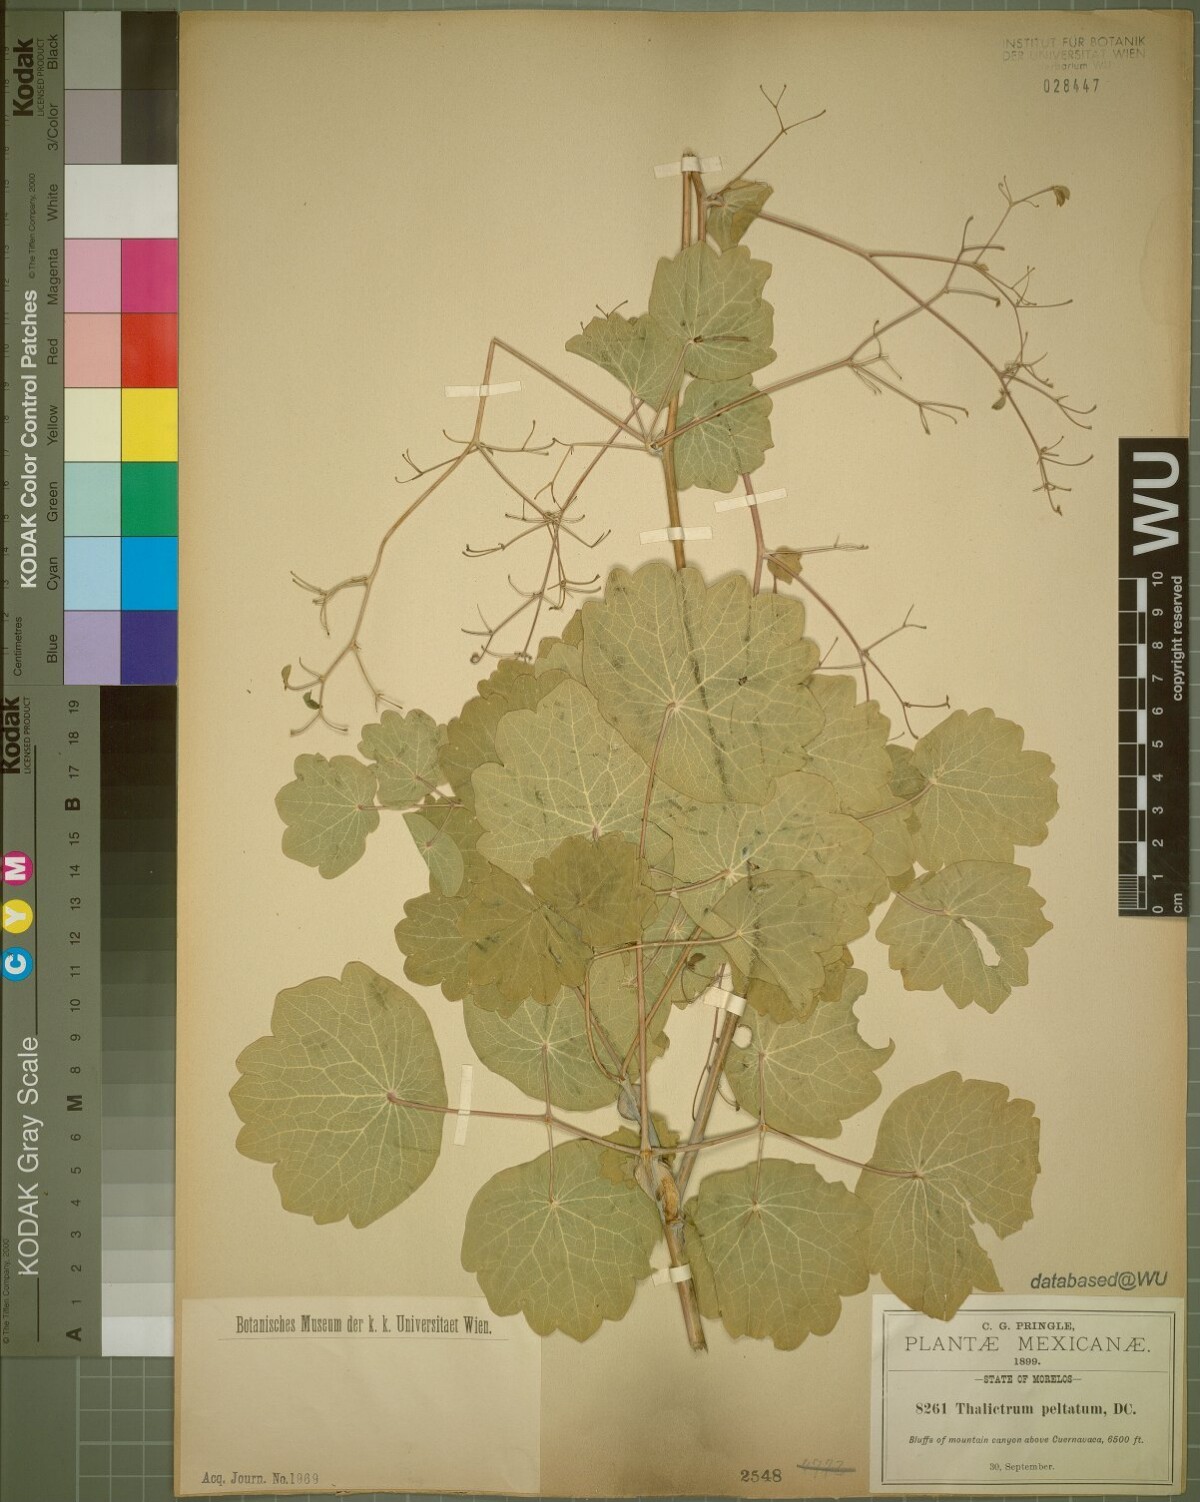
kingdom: Plantae
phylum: Tracheophyta
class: Magnoliopsida
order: Ranunculales
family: Ranunculaceae
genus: Thalictrum
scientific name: Thalictrum peltatum
